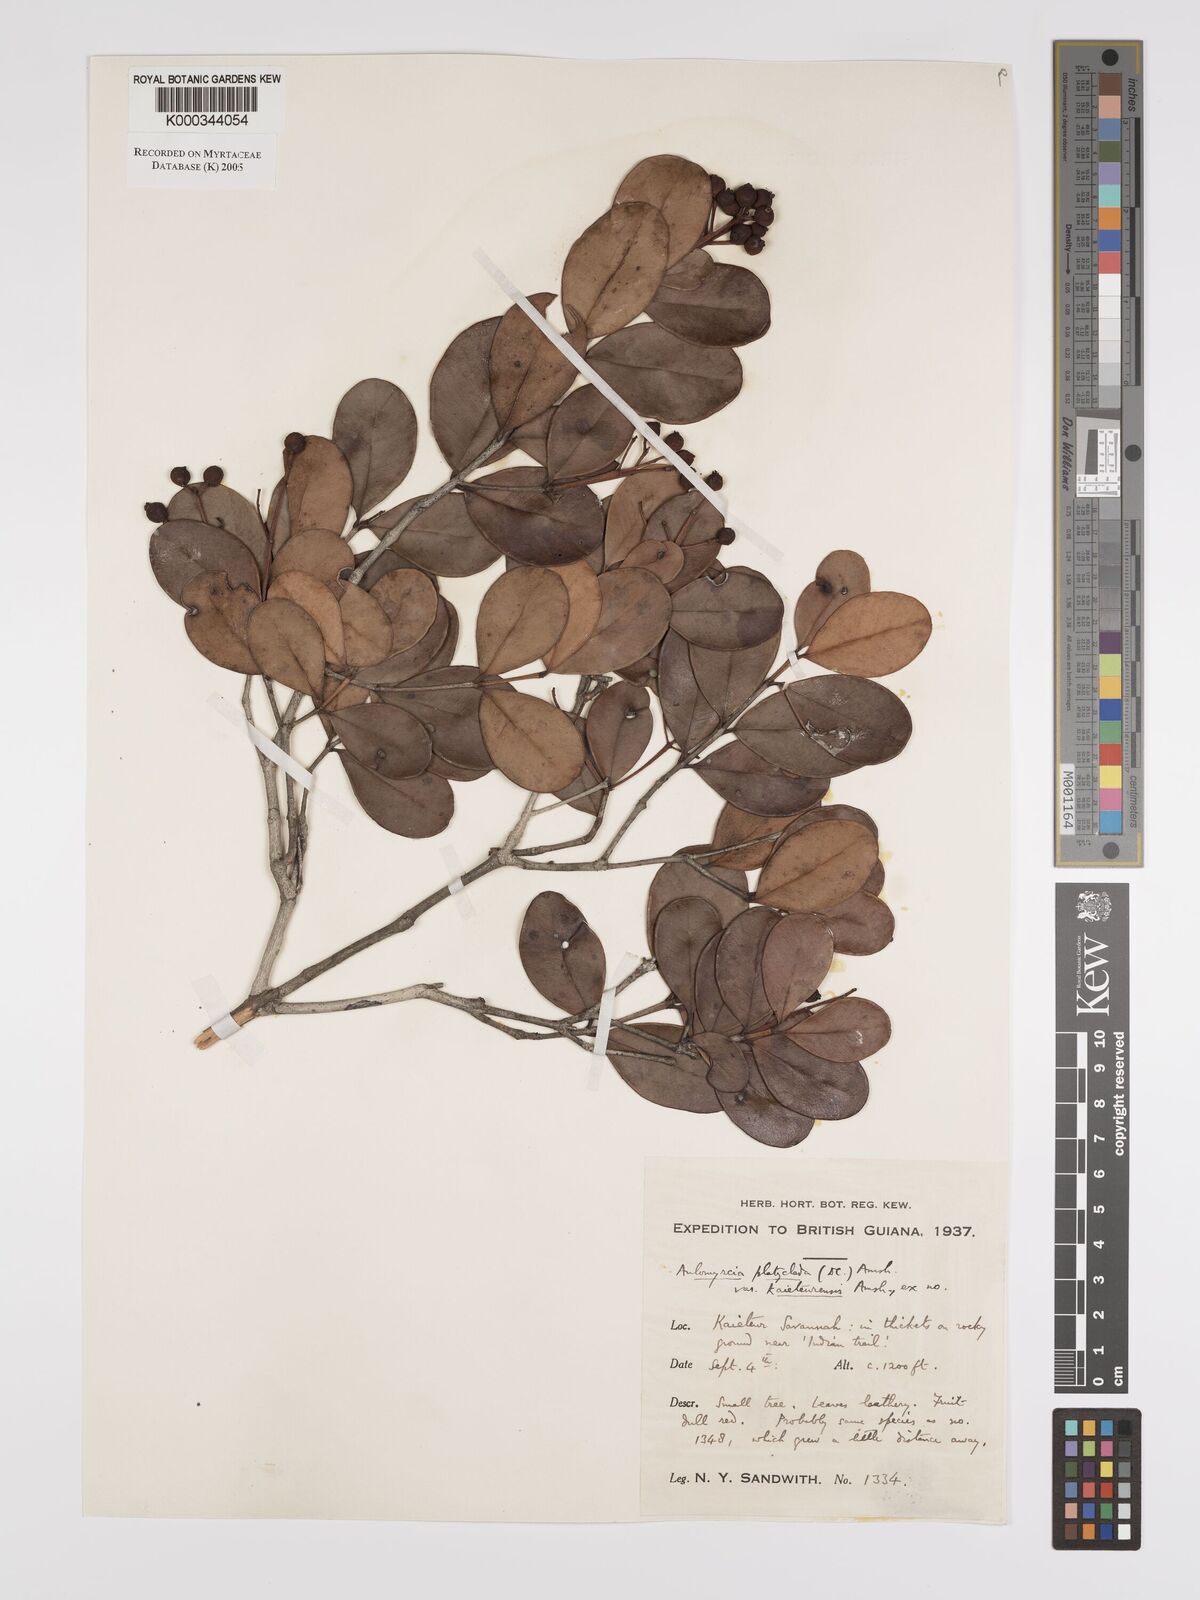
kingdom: Plantae
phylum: Tracheophyta
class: Magnoliopsida
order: Myrtales
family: Myrtaceae
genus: Myrcia
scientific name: Myrcia platyclada
